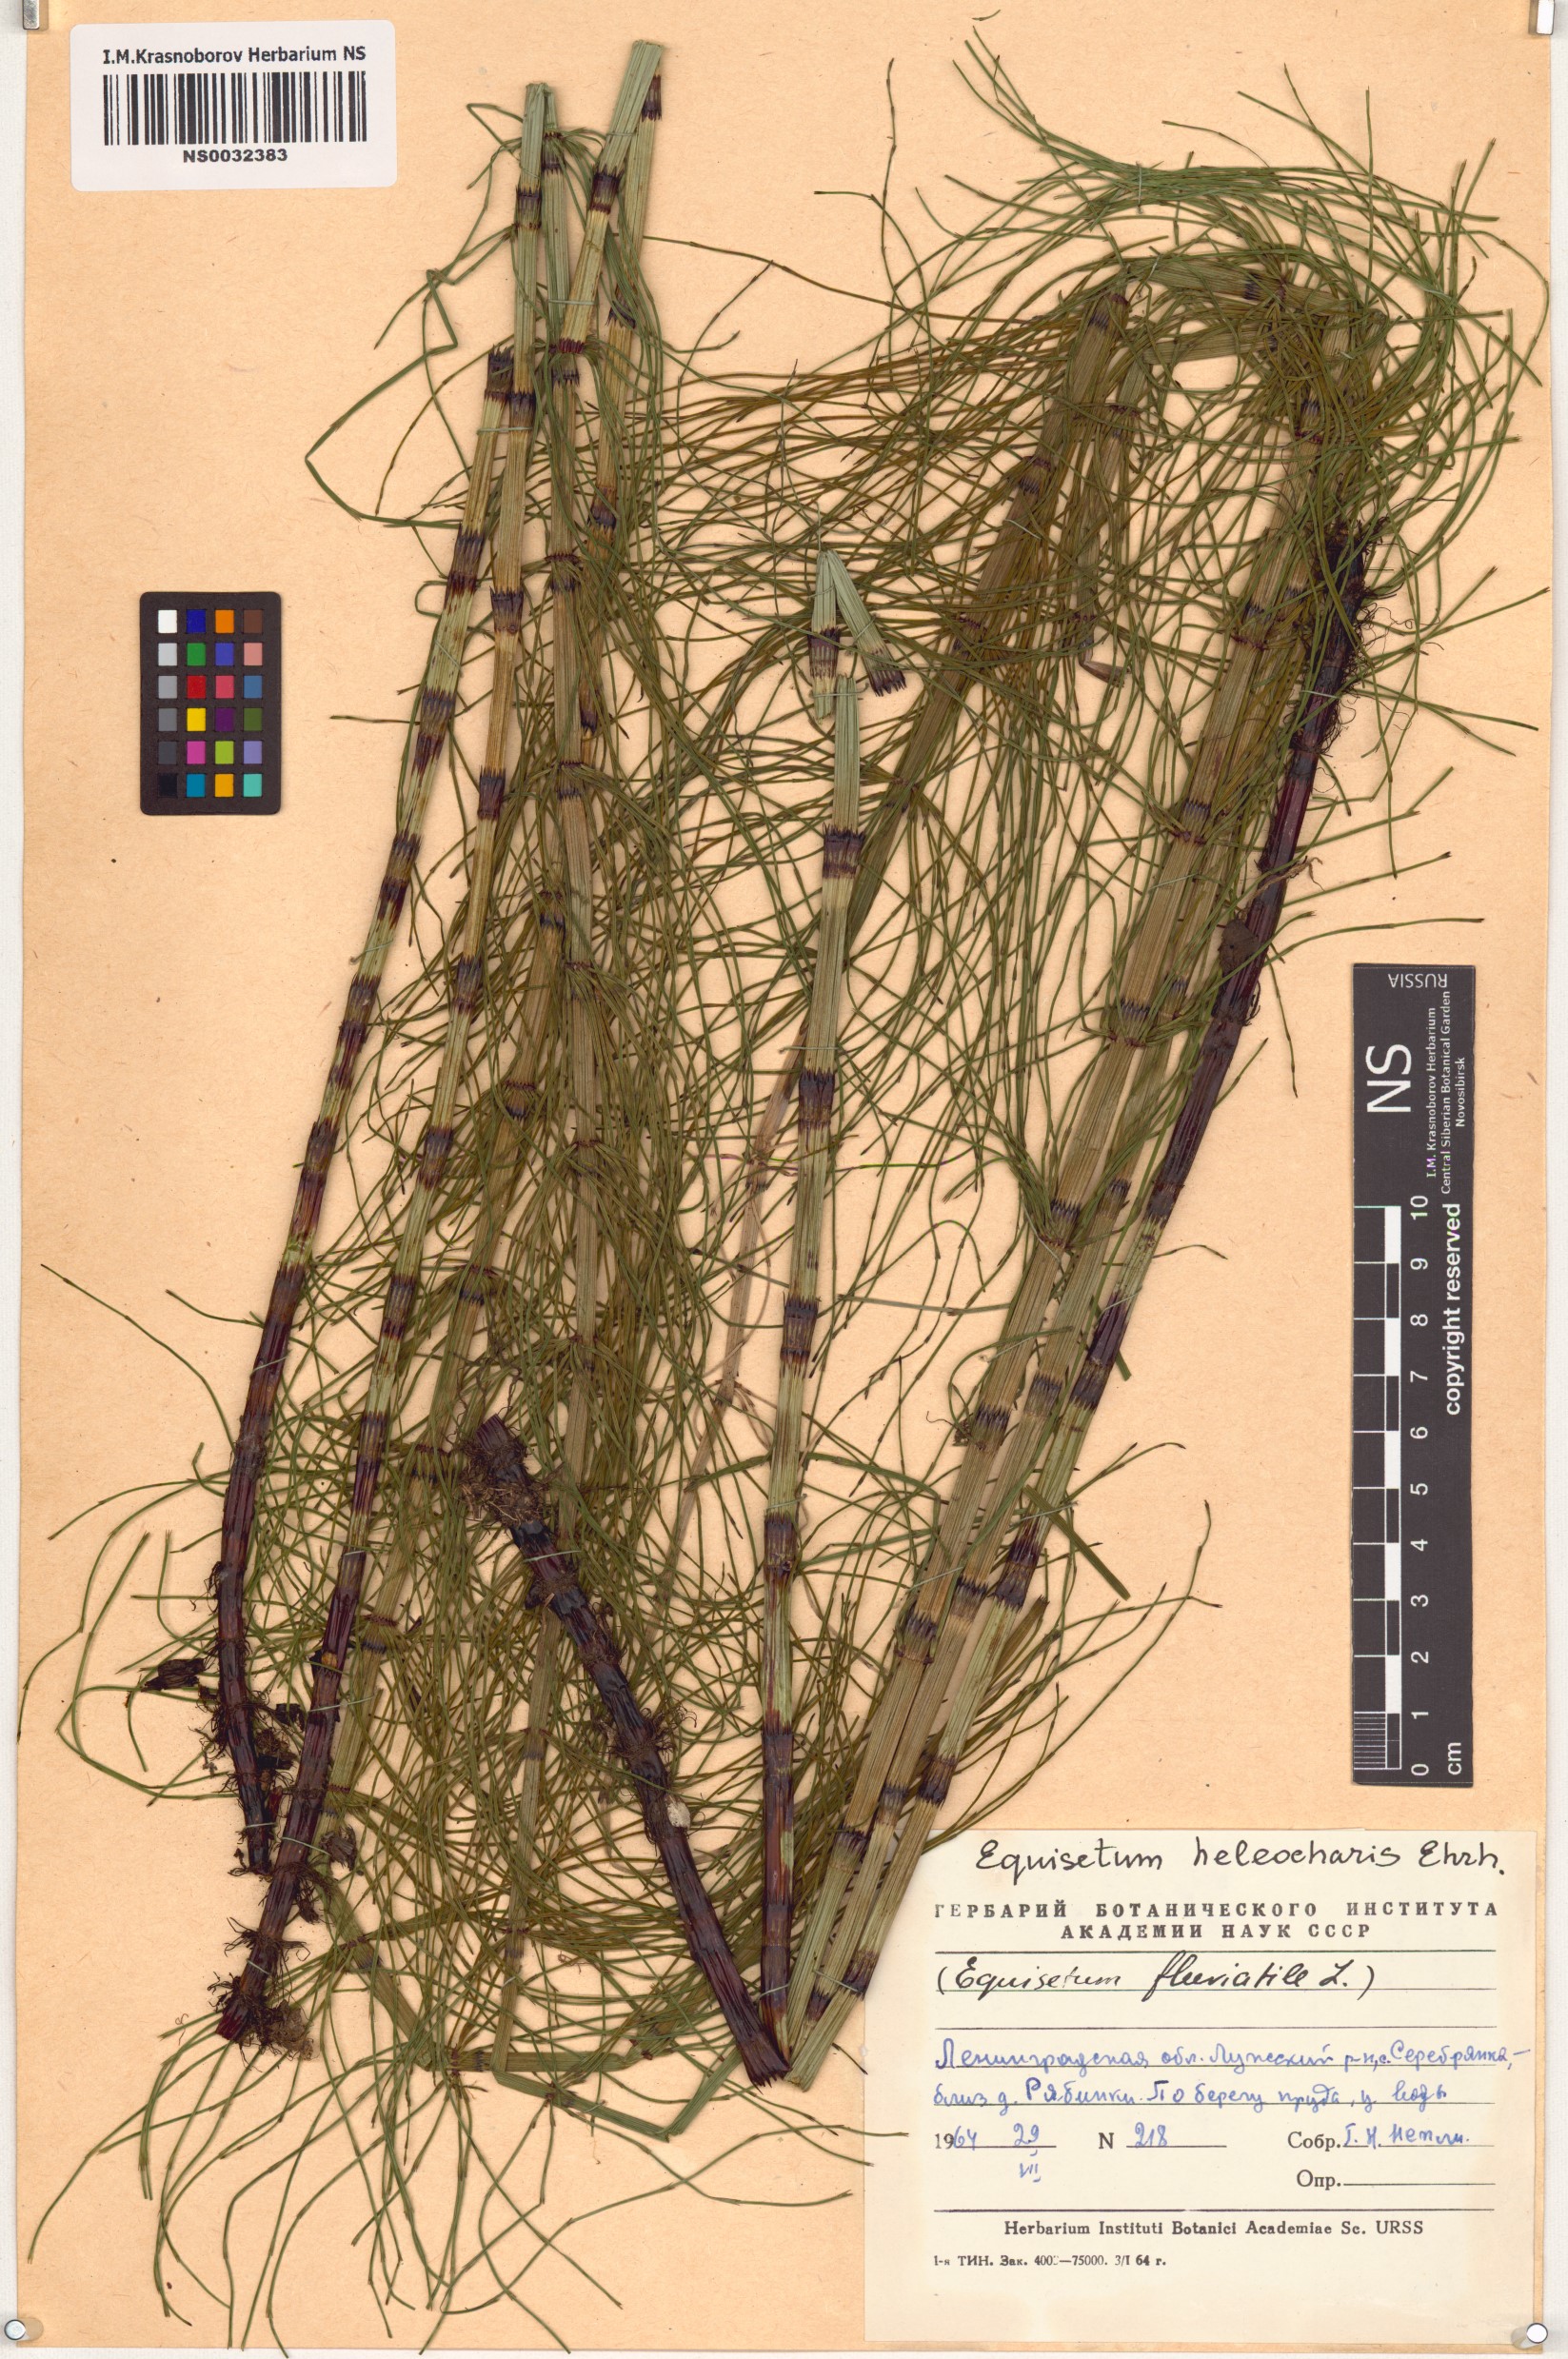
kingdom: Plantae
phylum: Tracheophyta
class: Polypodiopsida
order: Equisetales
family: Equisetaceae
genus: Equisetum
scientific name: Equisetum fluviatile
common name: Water horsetail
